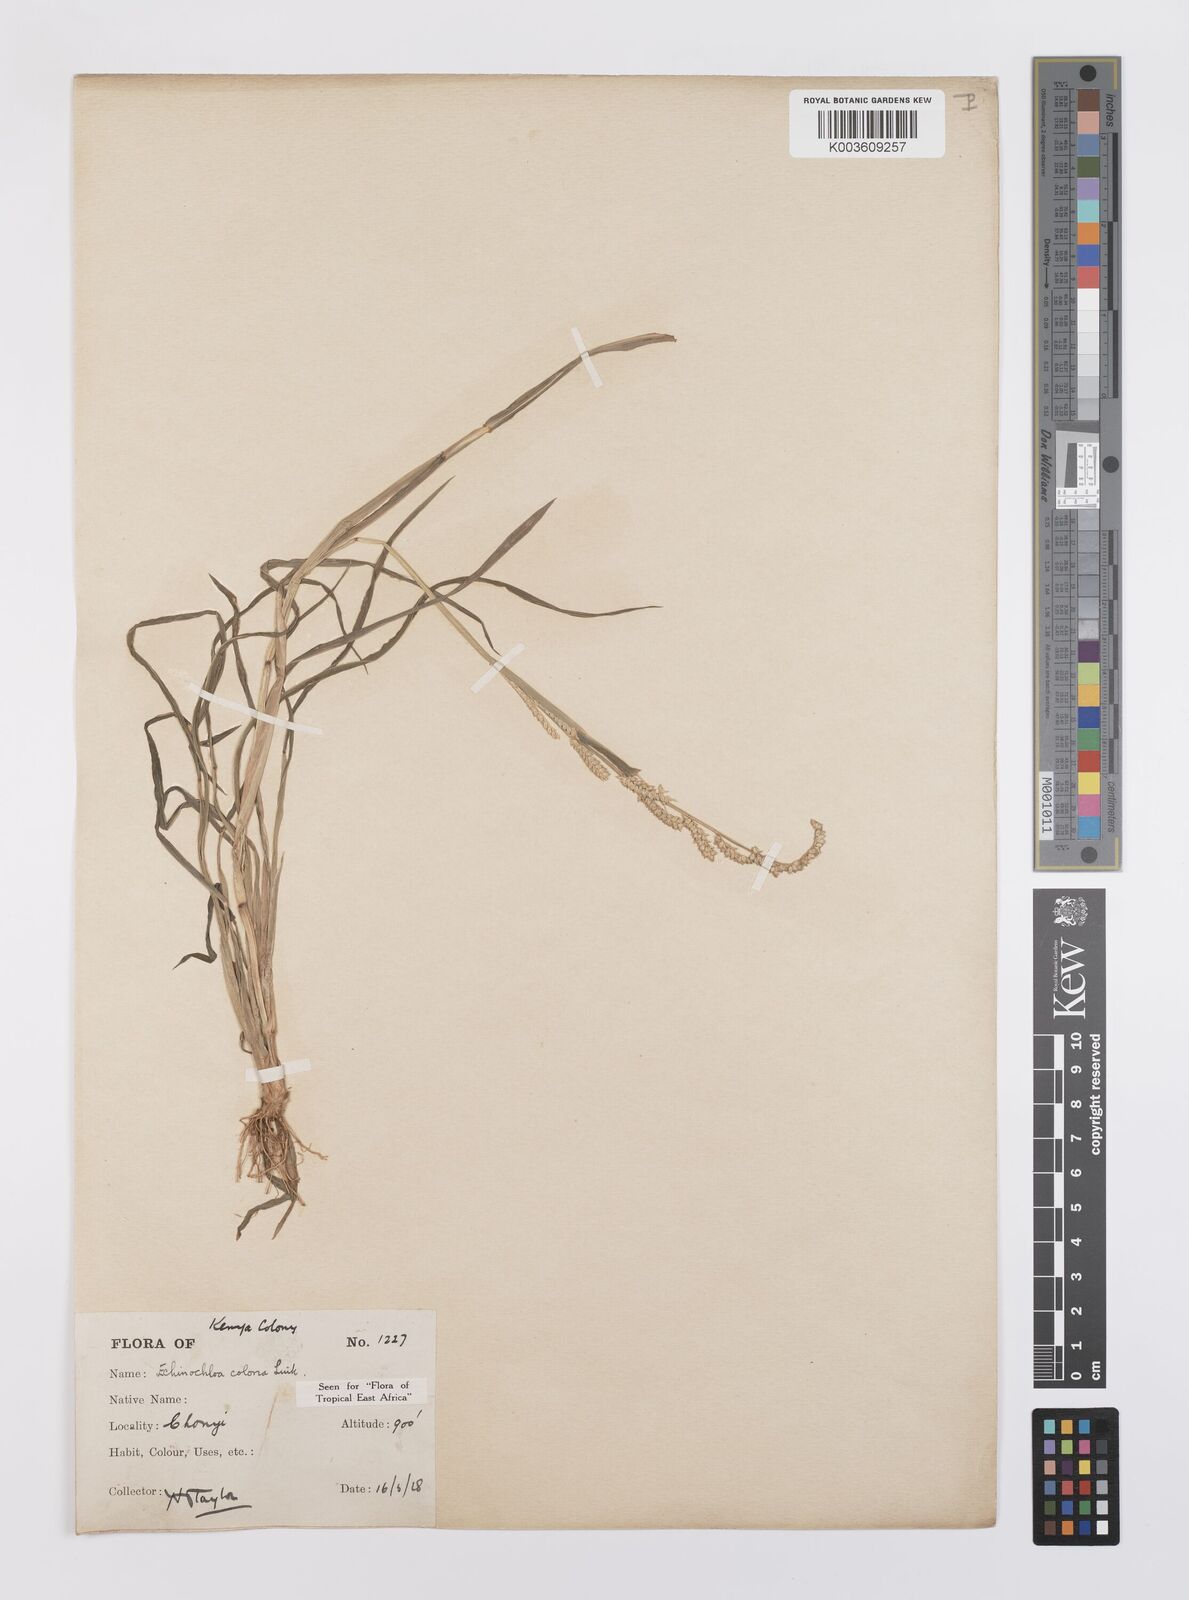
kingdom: Plantae
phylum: Tracheophyta
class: Liliopsida
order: Poales
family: Poaceae
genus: Echinochloa
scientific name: Echinochloa colonum
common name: Jungle rice
